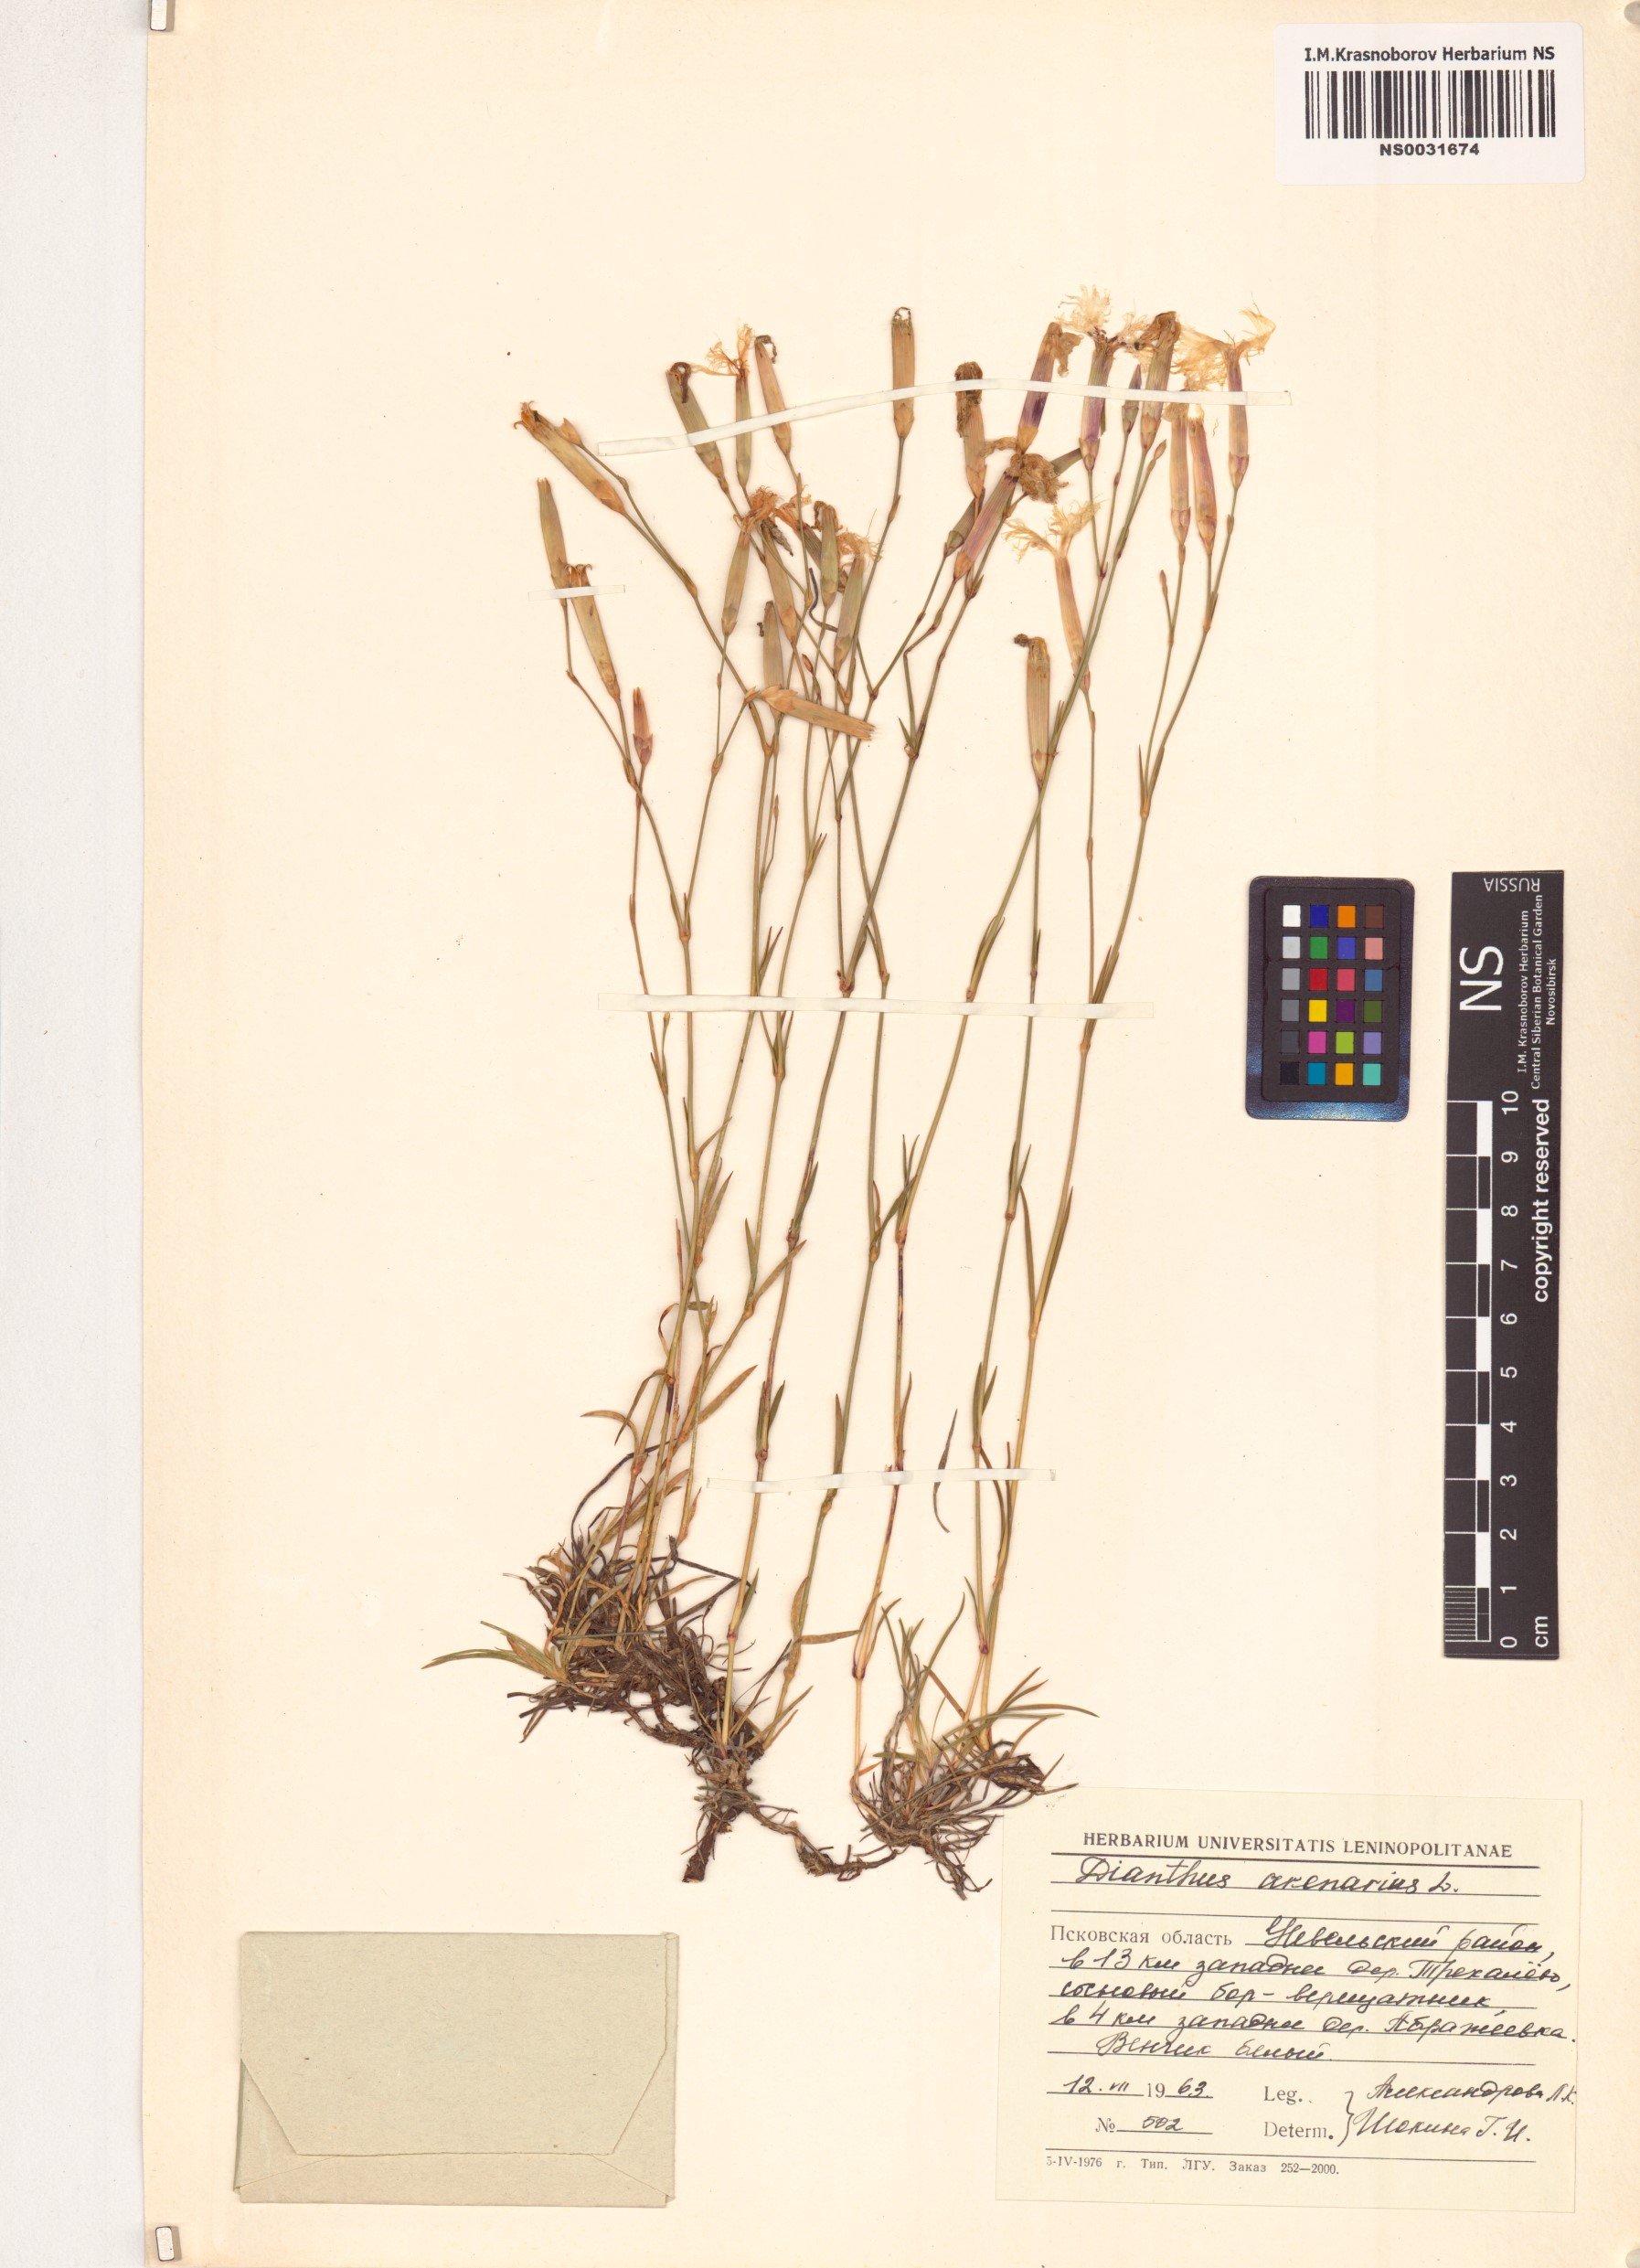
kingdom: Plantae
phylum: Tracheophyta
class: Magnoliopsida
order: Caryophyllales
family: Caryophyllaceae
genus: Dianthus
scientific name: Dianthus arenarius
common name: Stone pink
